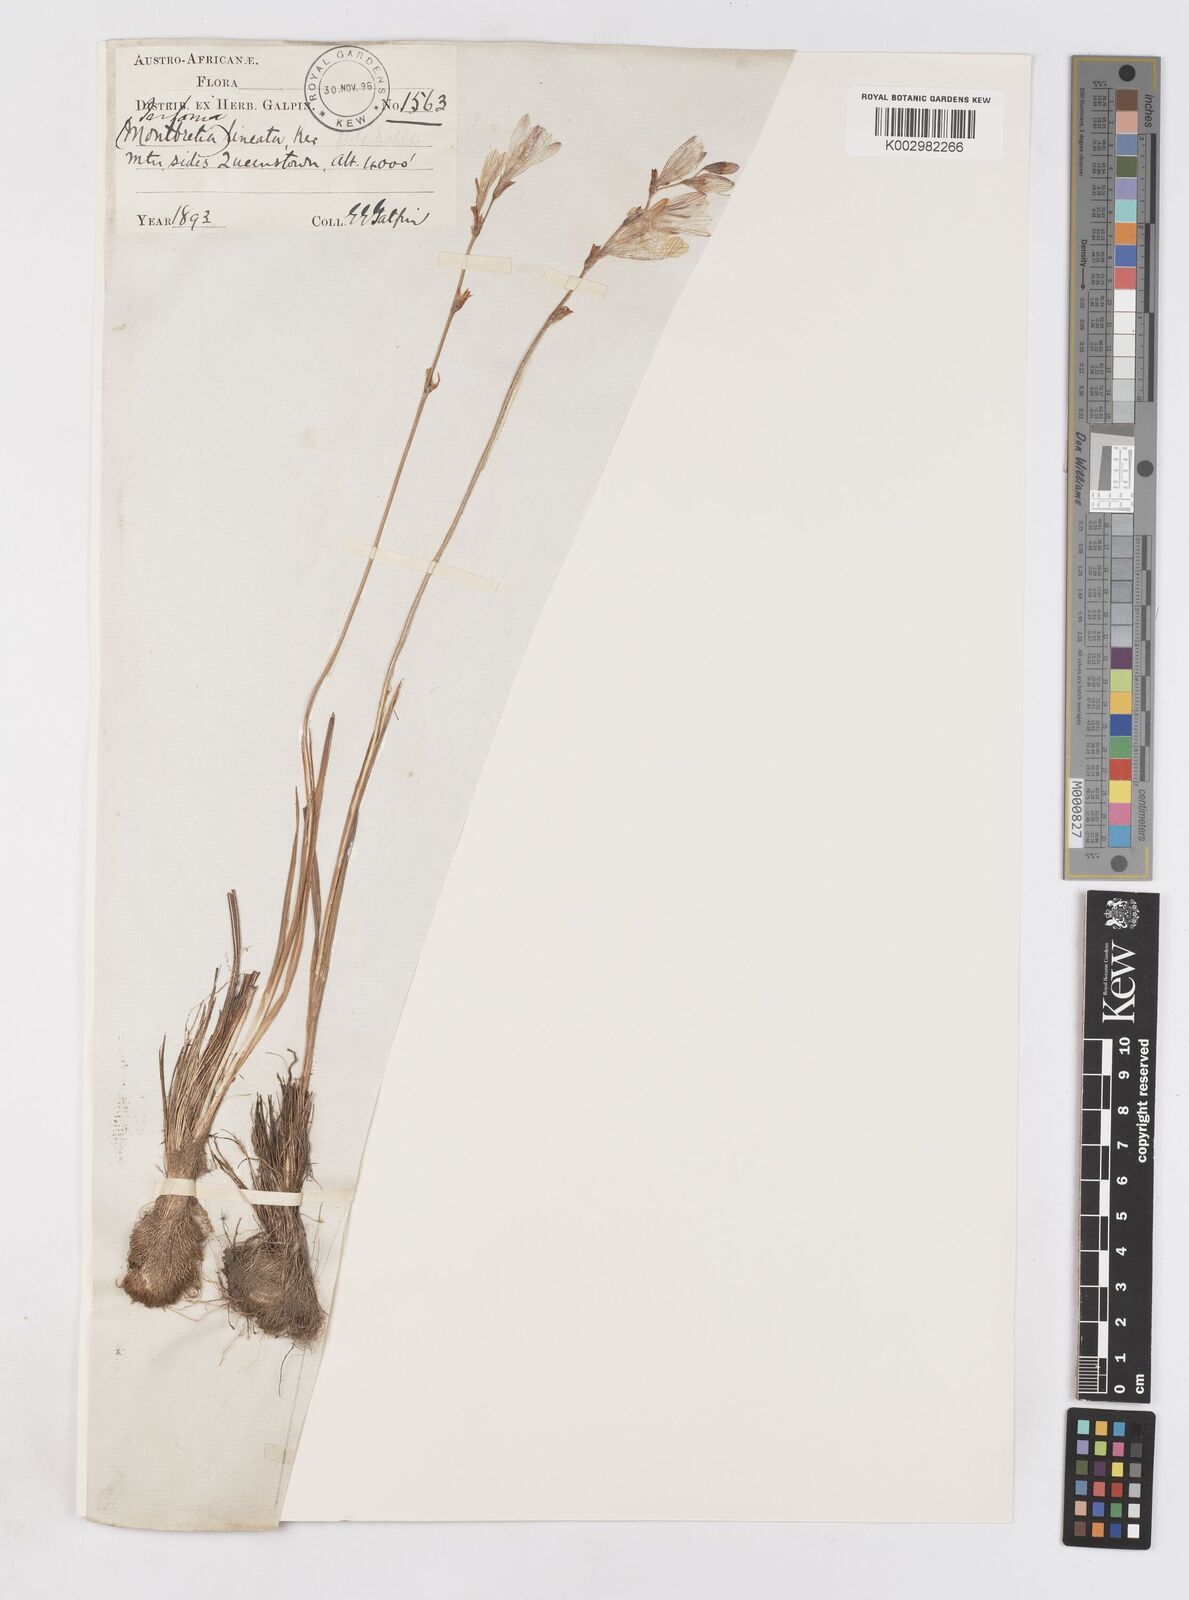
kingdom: Plantae
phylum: Tracheophyta
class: Liliopsida
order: Asparagales
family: Iridaceae
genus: Tritonia
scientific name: Tritonia gladiolaris
